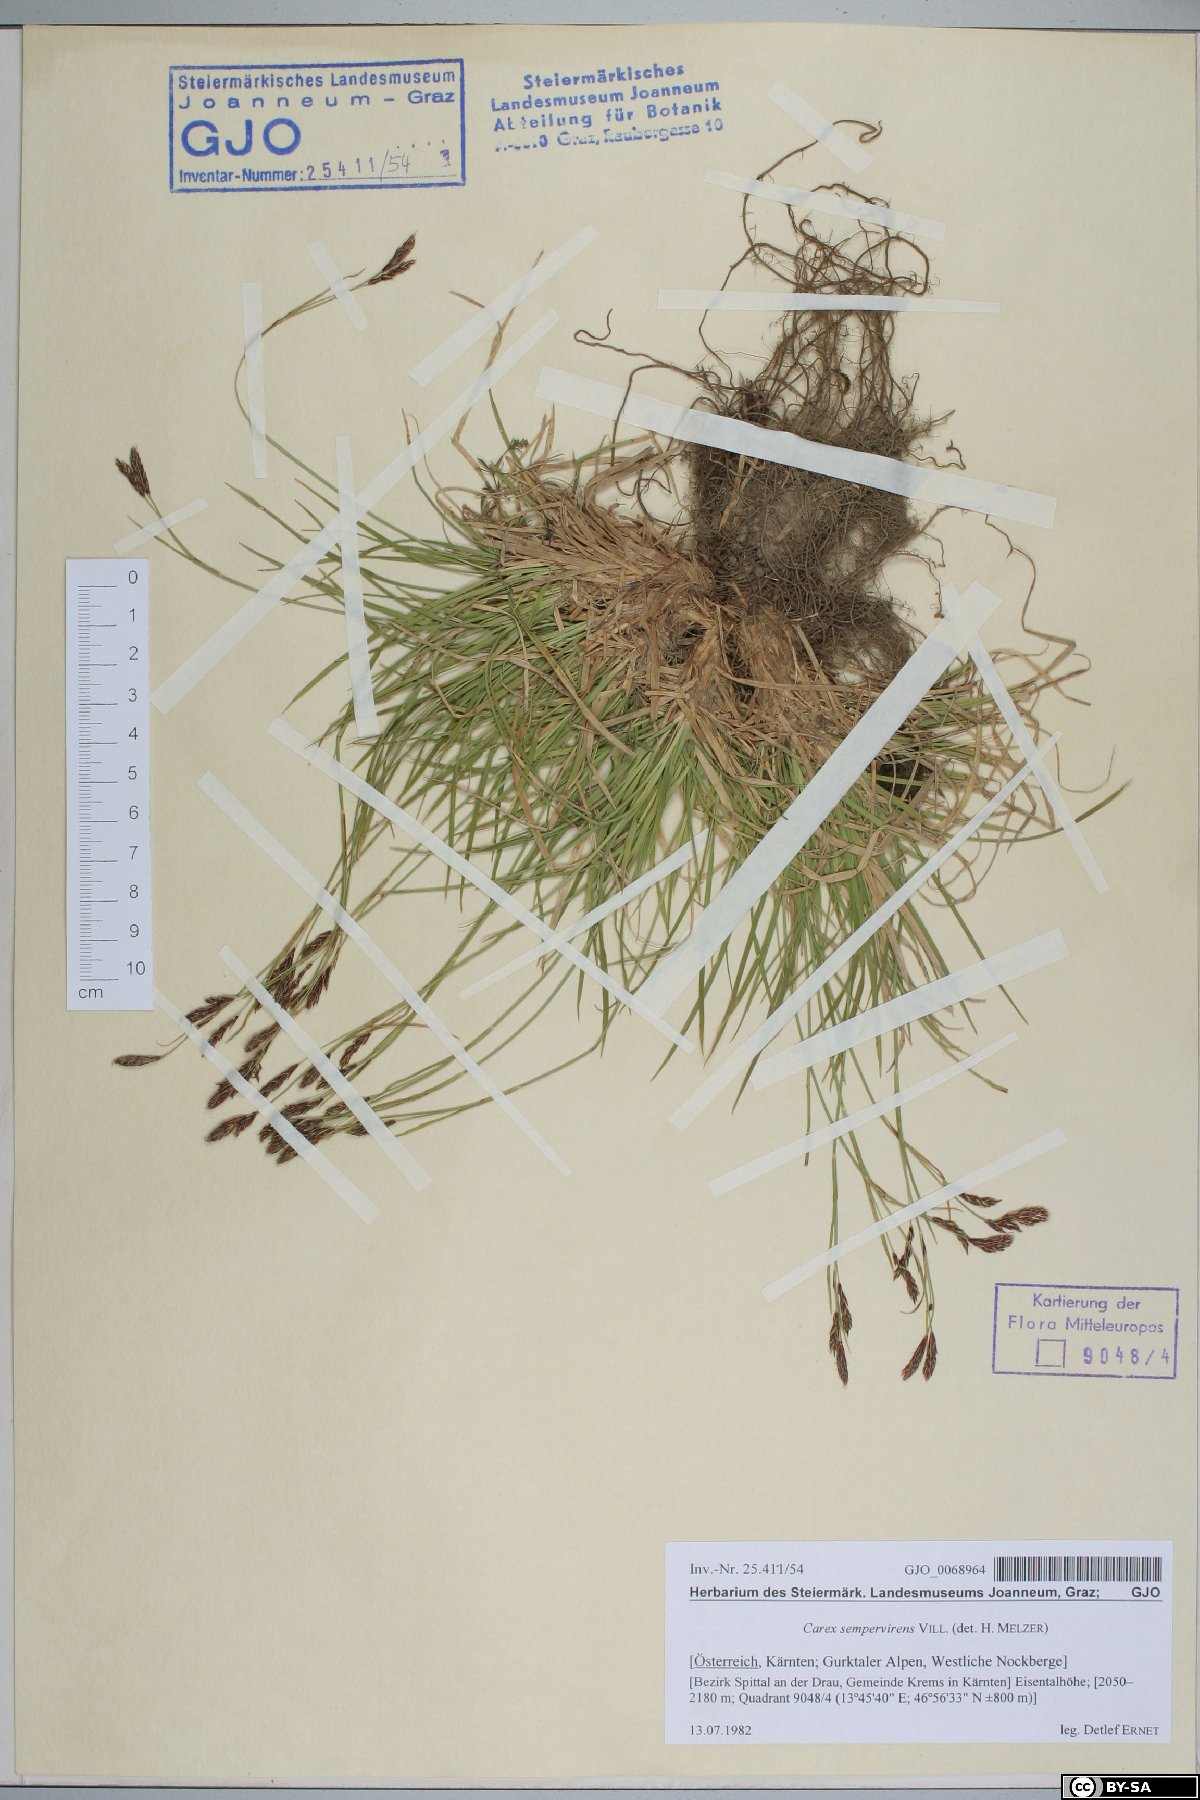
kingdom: Plantae
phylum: Tracheophyta
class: Liliopsida
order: Poales
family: Cyperaceae
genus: Carex
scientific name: Carex sempervirens
